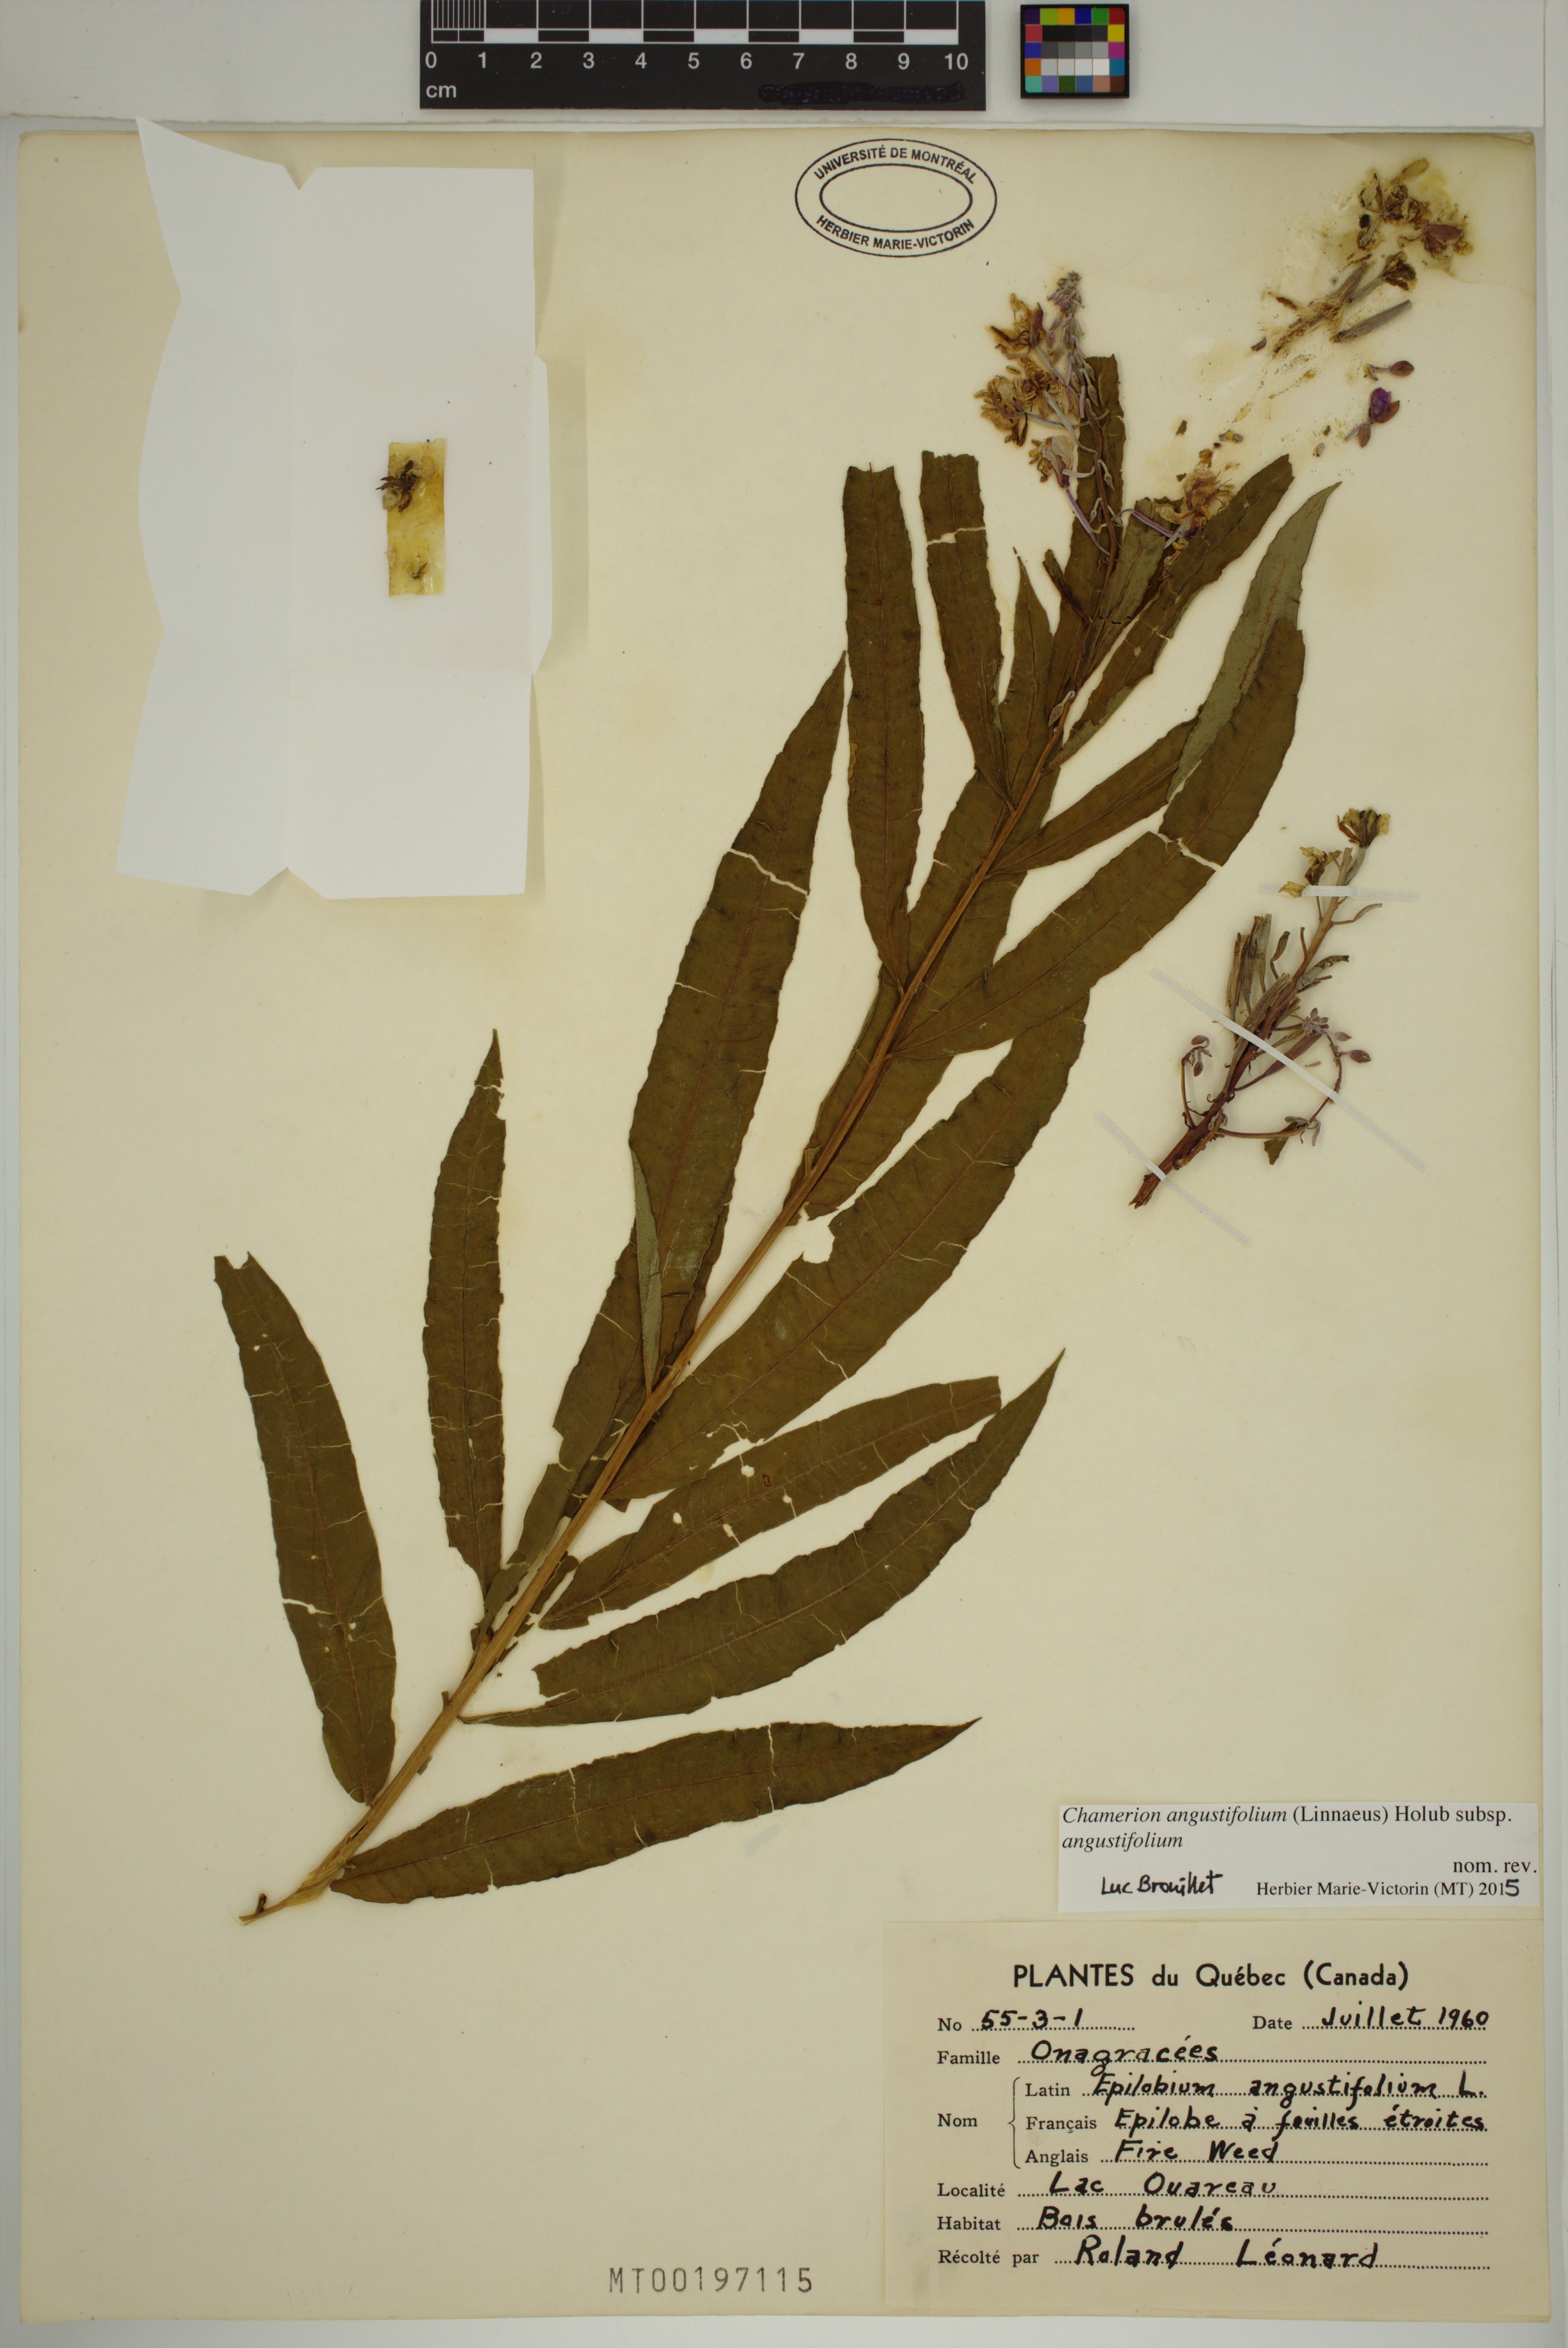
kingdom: Plantae
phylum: Tracheophyta
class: Magnoliopsida
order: Myrtales
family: Onagraceae
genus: Chamaenerion
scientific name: Chamaenerion angustifolium
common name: Fireweed
